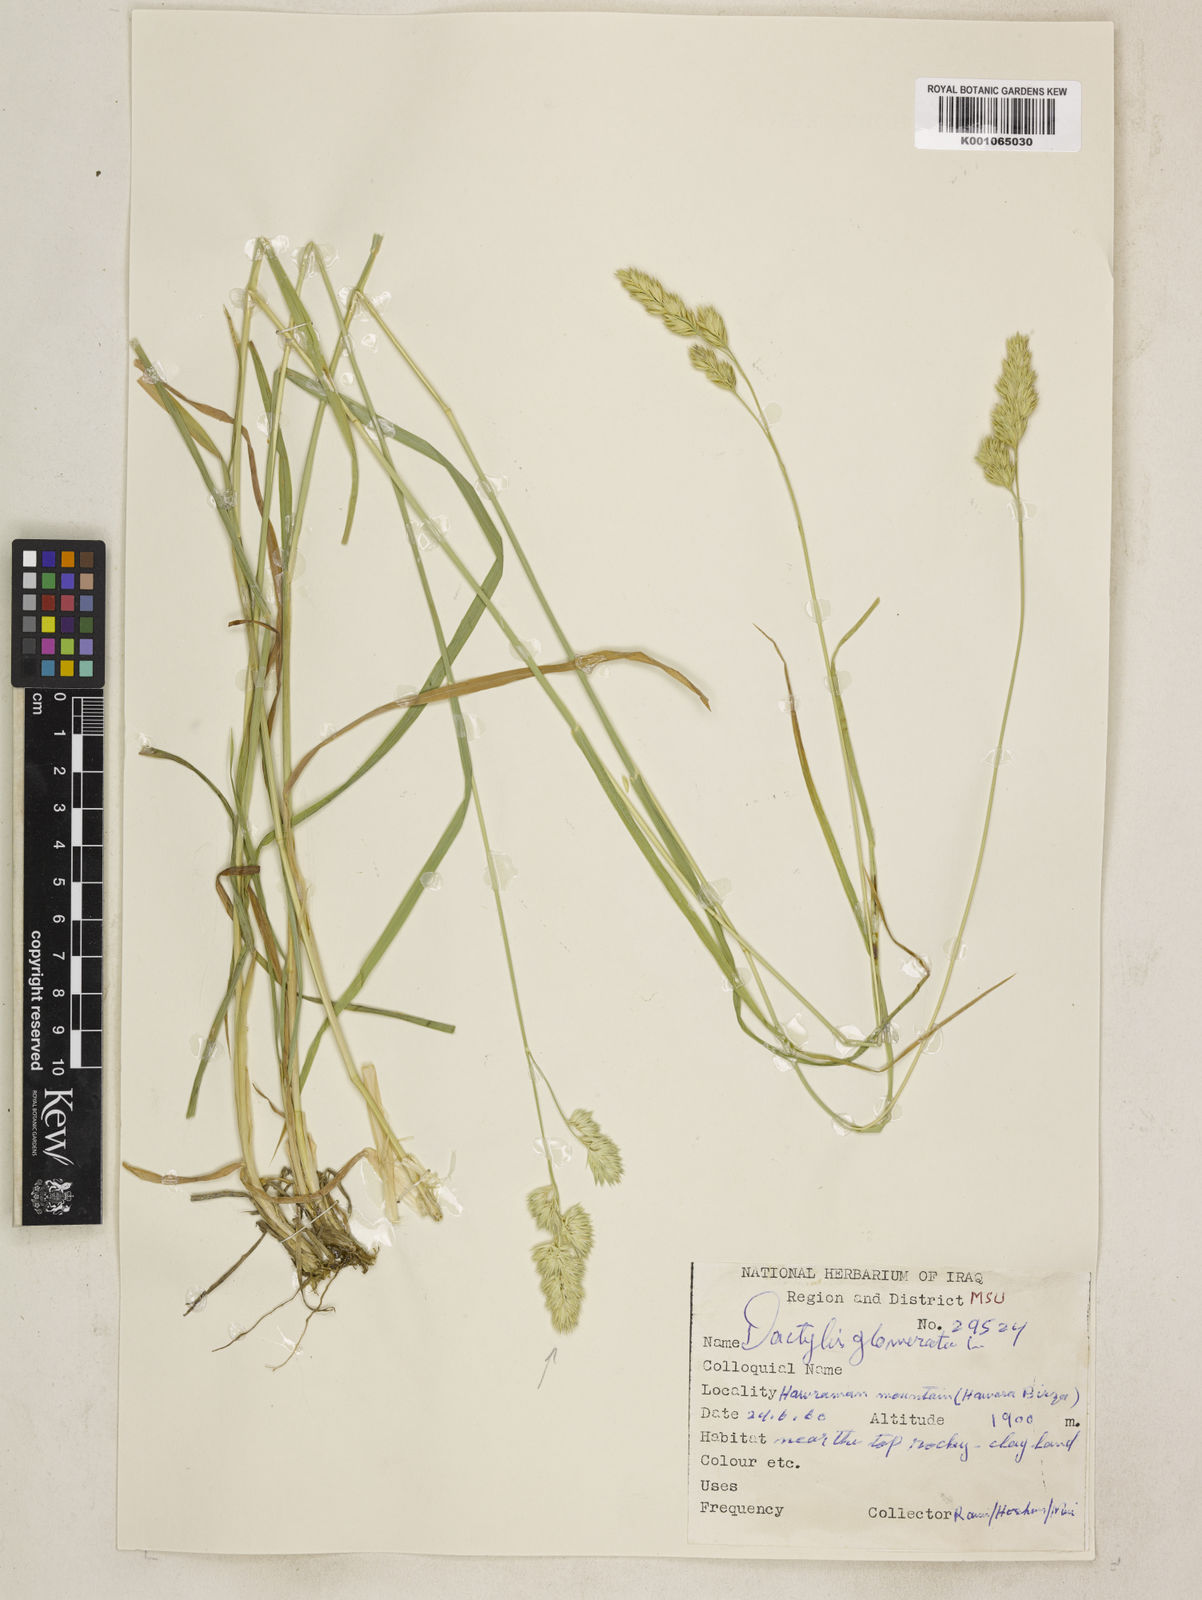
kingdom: Plantae
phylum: Tracheophyta
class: Liliopsida
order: Poales
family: Poaceae
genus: Dactylis
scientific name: Dactylis glomerata
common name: Orchardgrass
